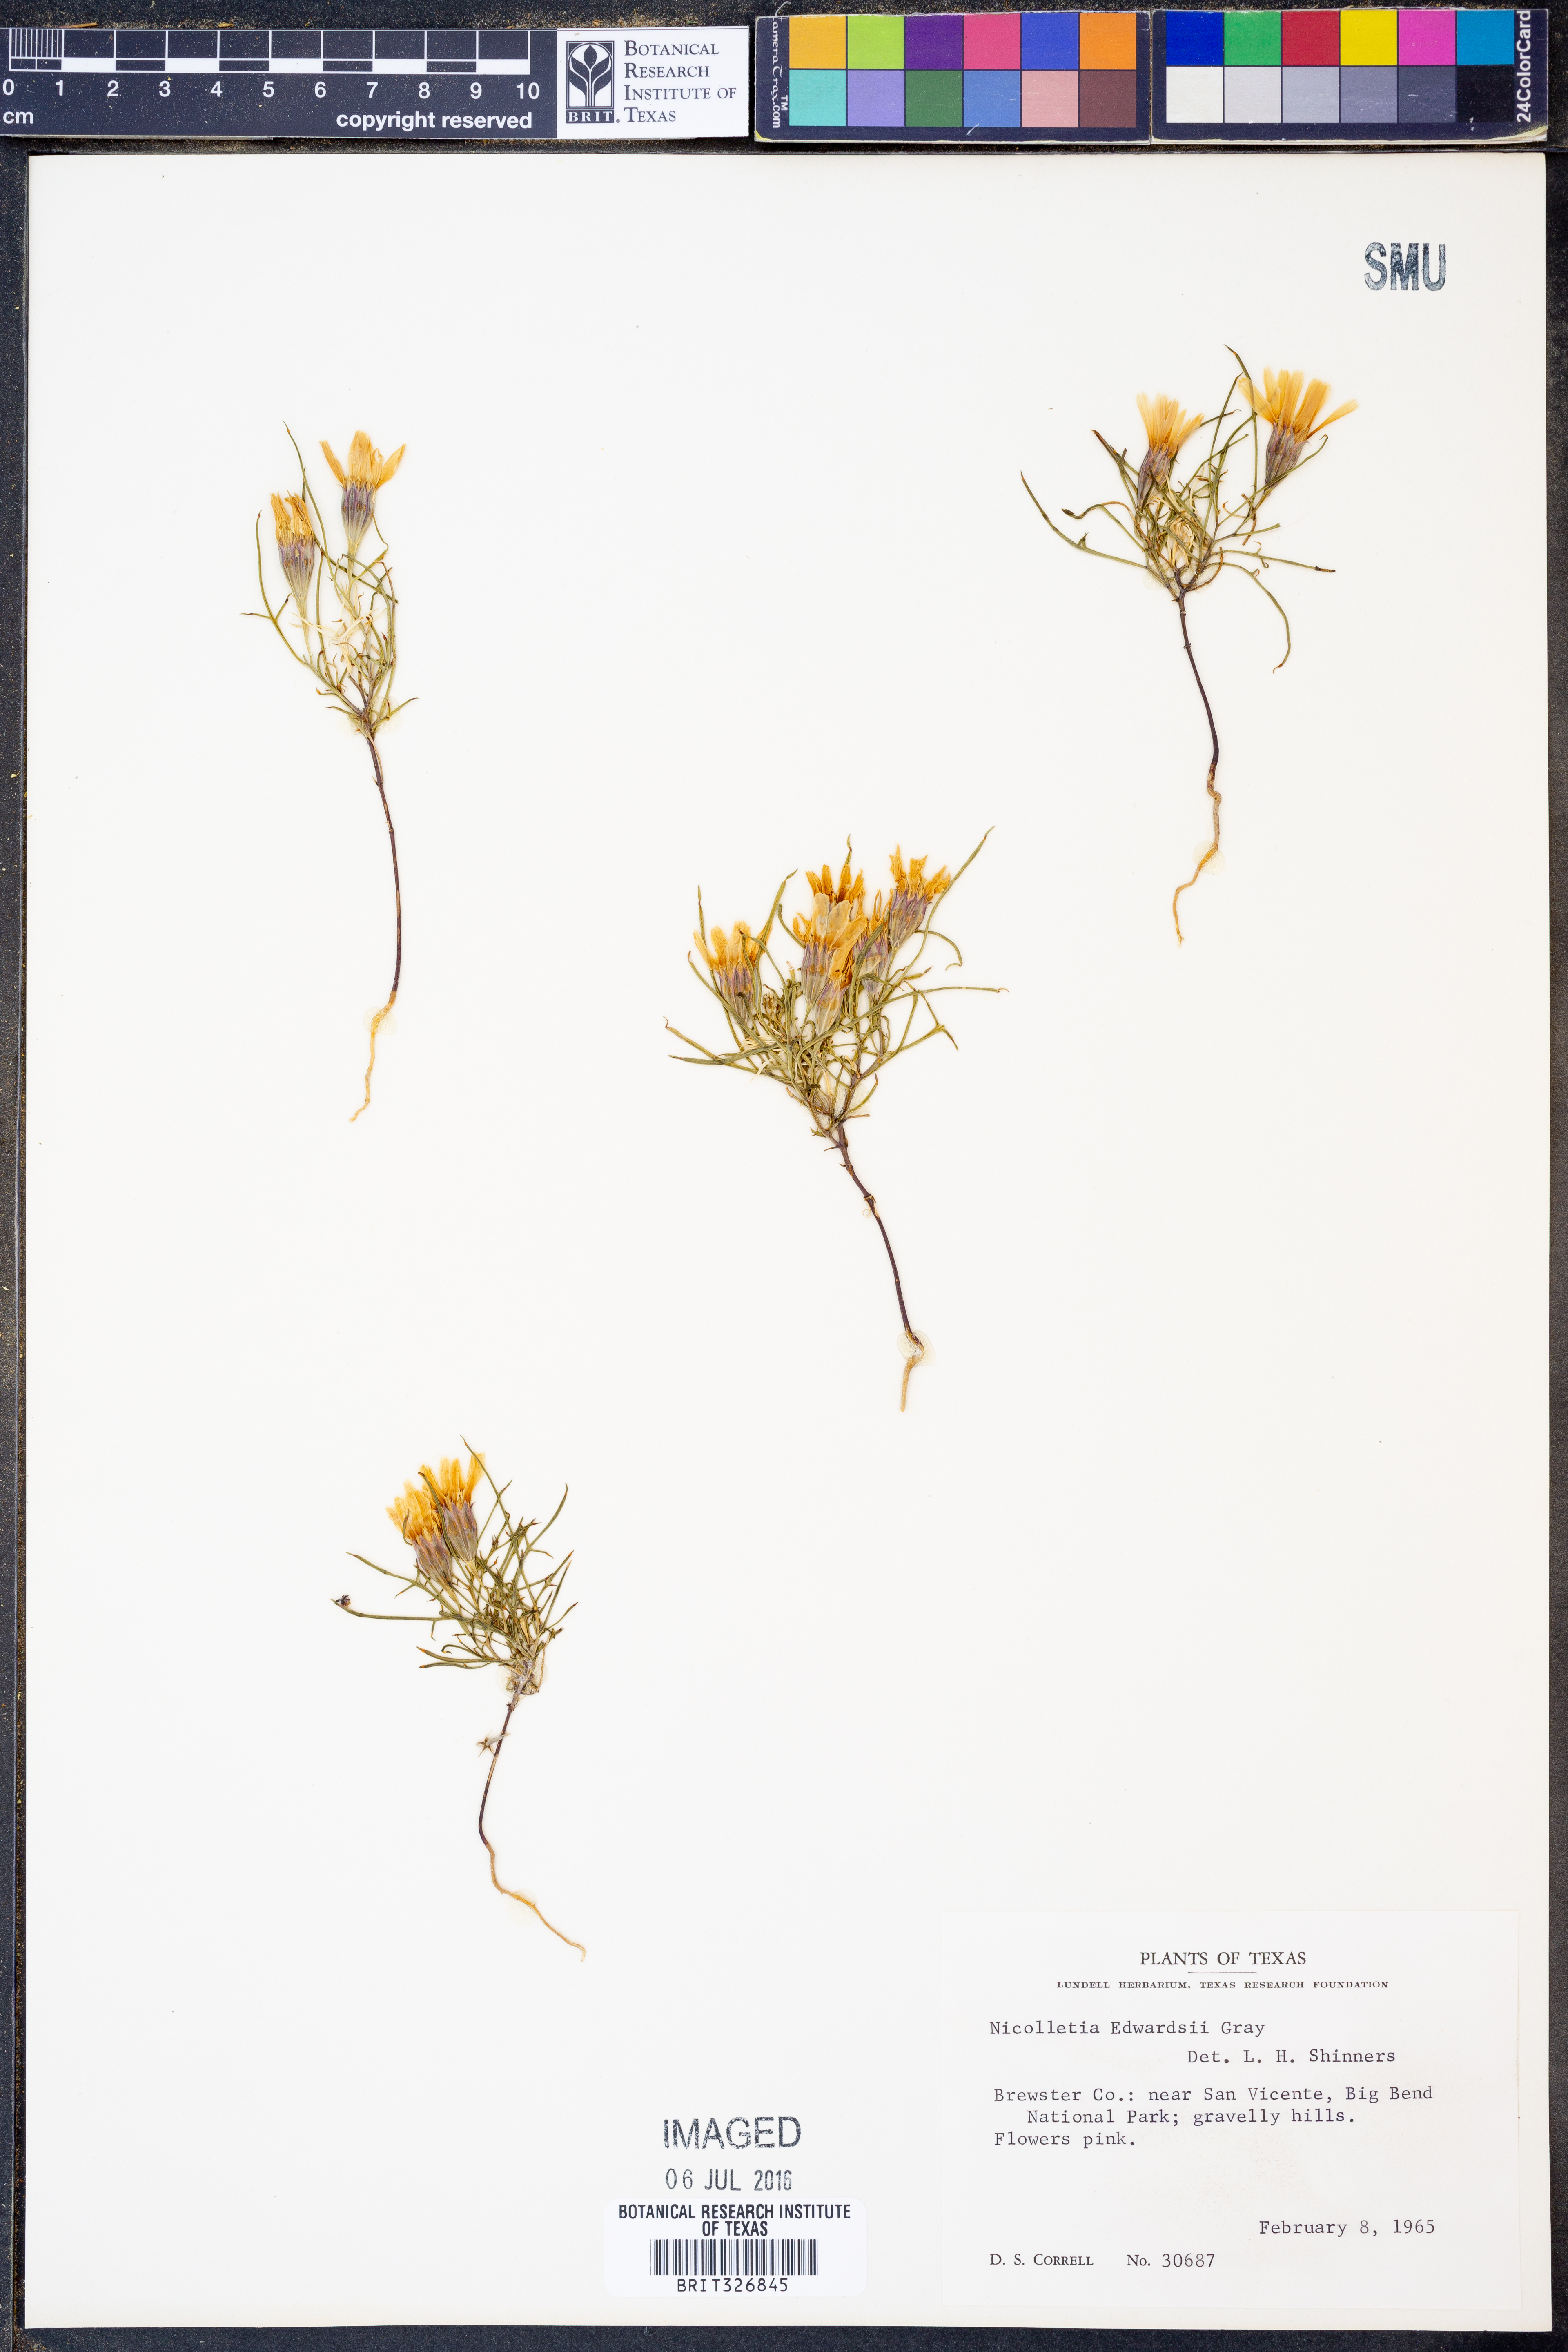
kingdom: Plantae
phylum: Tracheophyta
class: Magnoliopsida
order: Asterales
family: Asteraceae
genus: Nicolletia
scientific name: Nicolletia edwardsii
